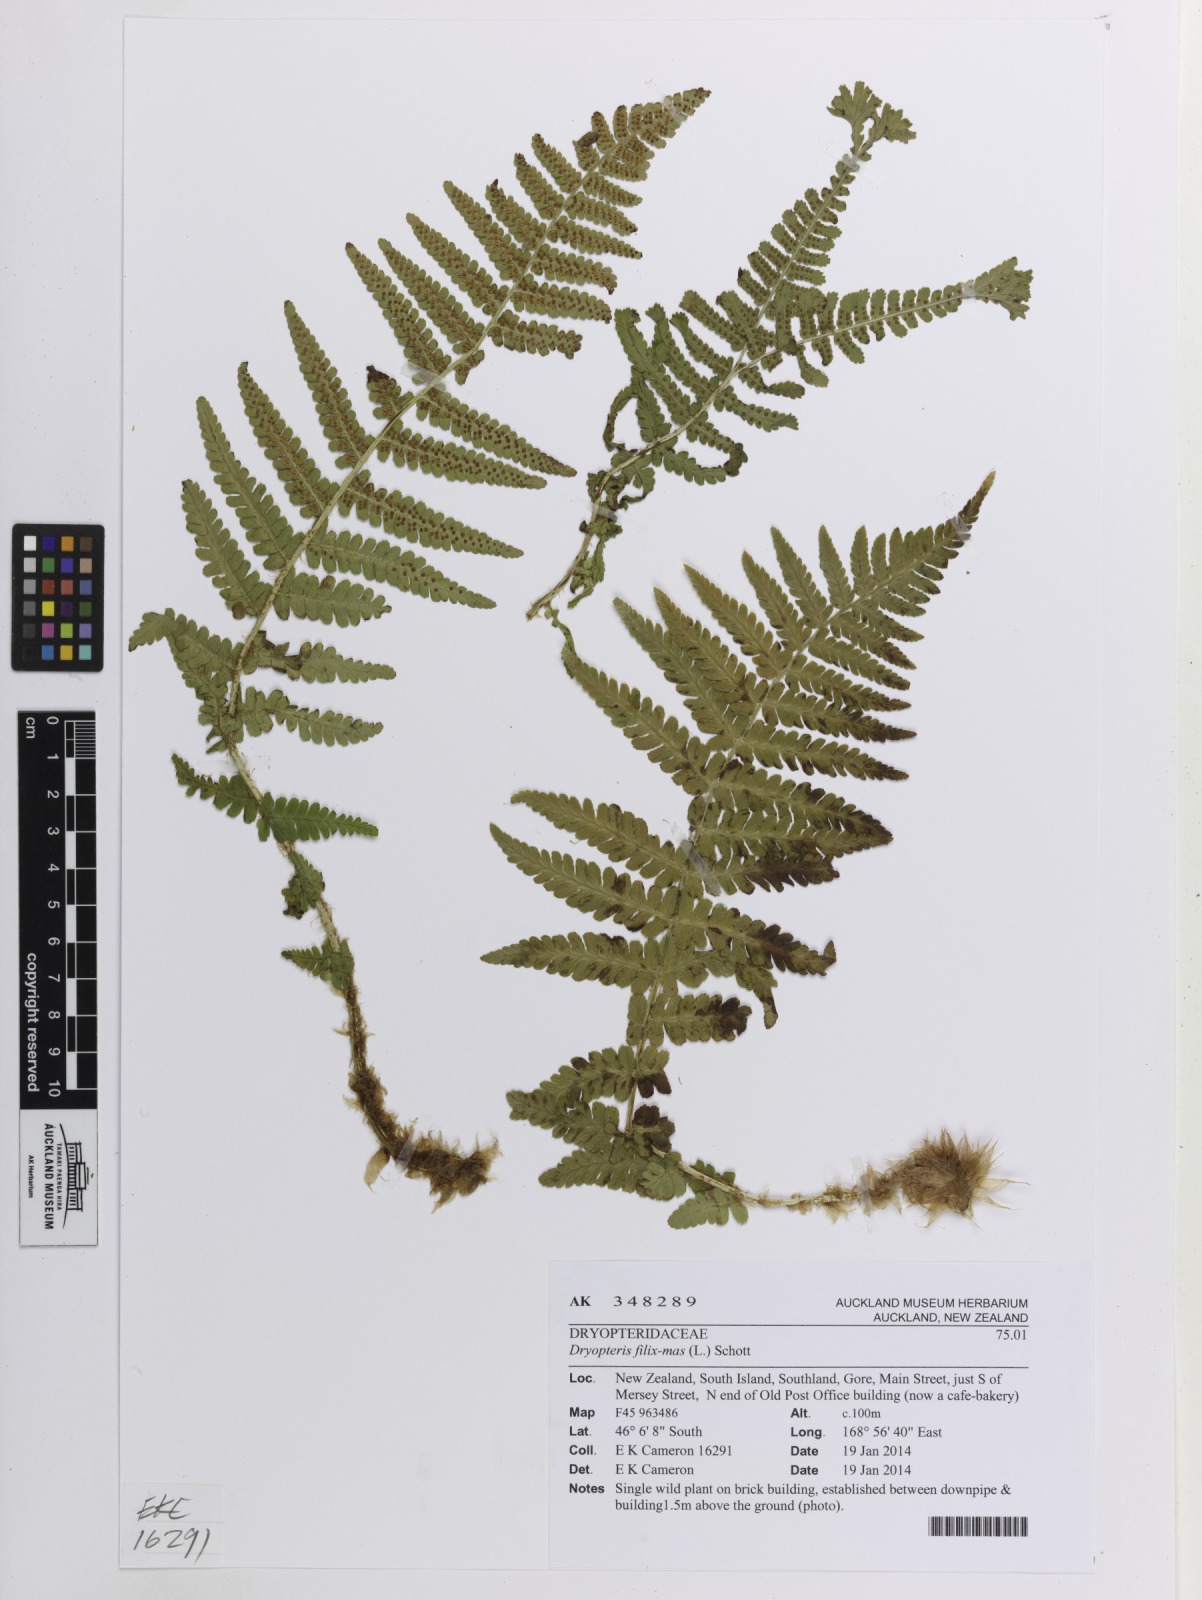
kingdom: Plantae
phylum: Tracheophyta
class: Polypodiopsida
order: Polypodiales
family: Dryopteridaceae
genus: Dryopteris
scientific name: Dryopteris filix-mas
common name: Male fern
